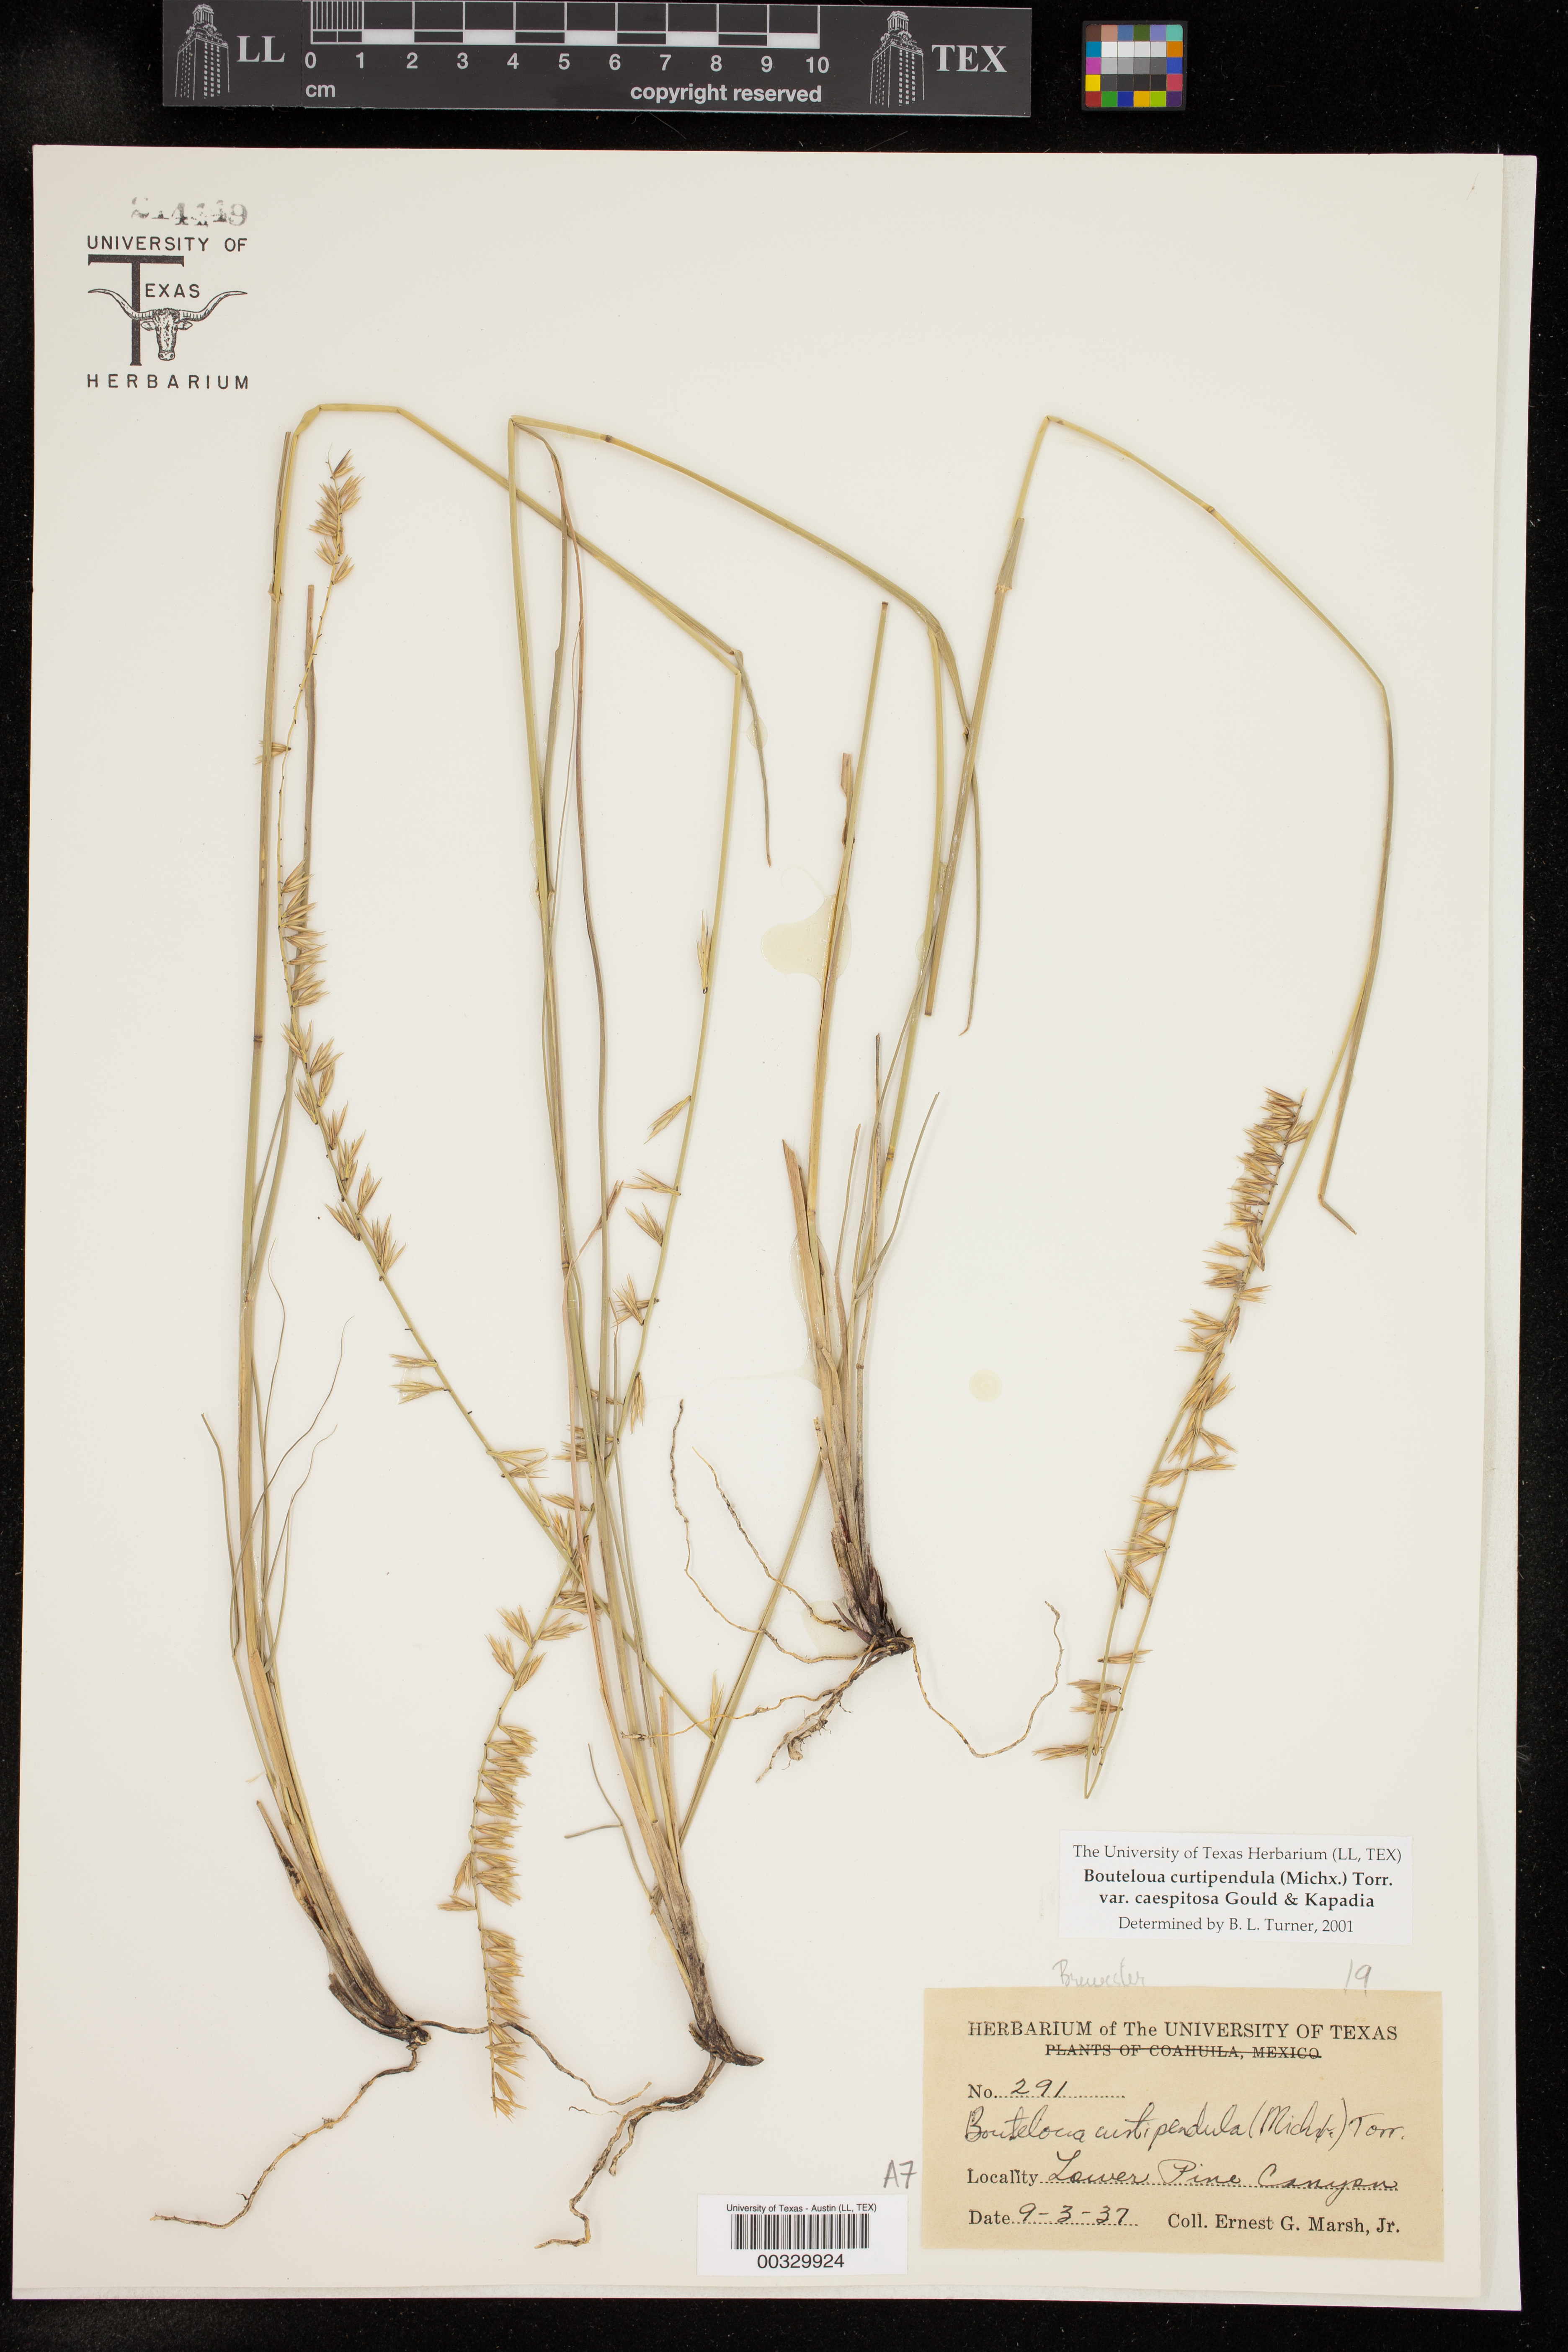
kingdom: Plantae
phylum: Tracheophyta
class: Liliopsida
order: Poales
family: Poaceae
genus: Bouteloua
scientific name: Bouteloua curtipendula
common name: Side-oats grama
